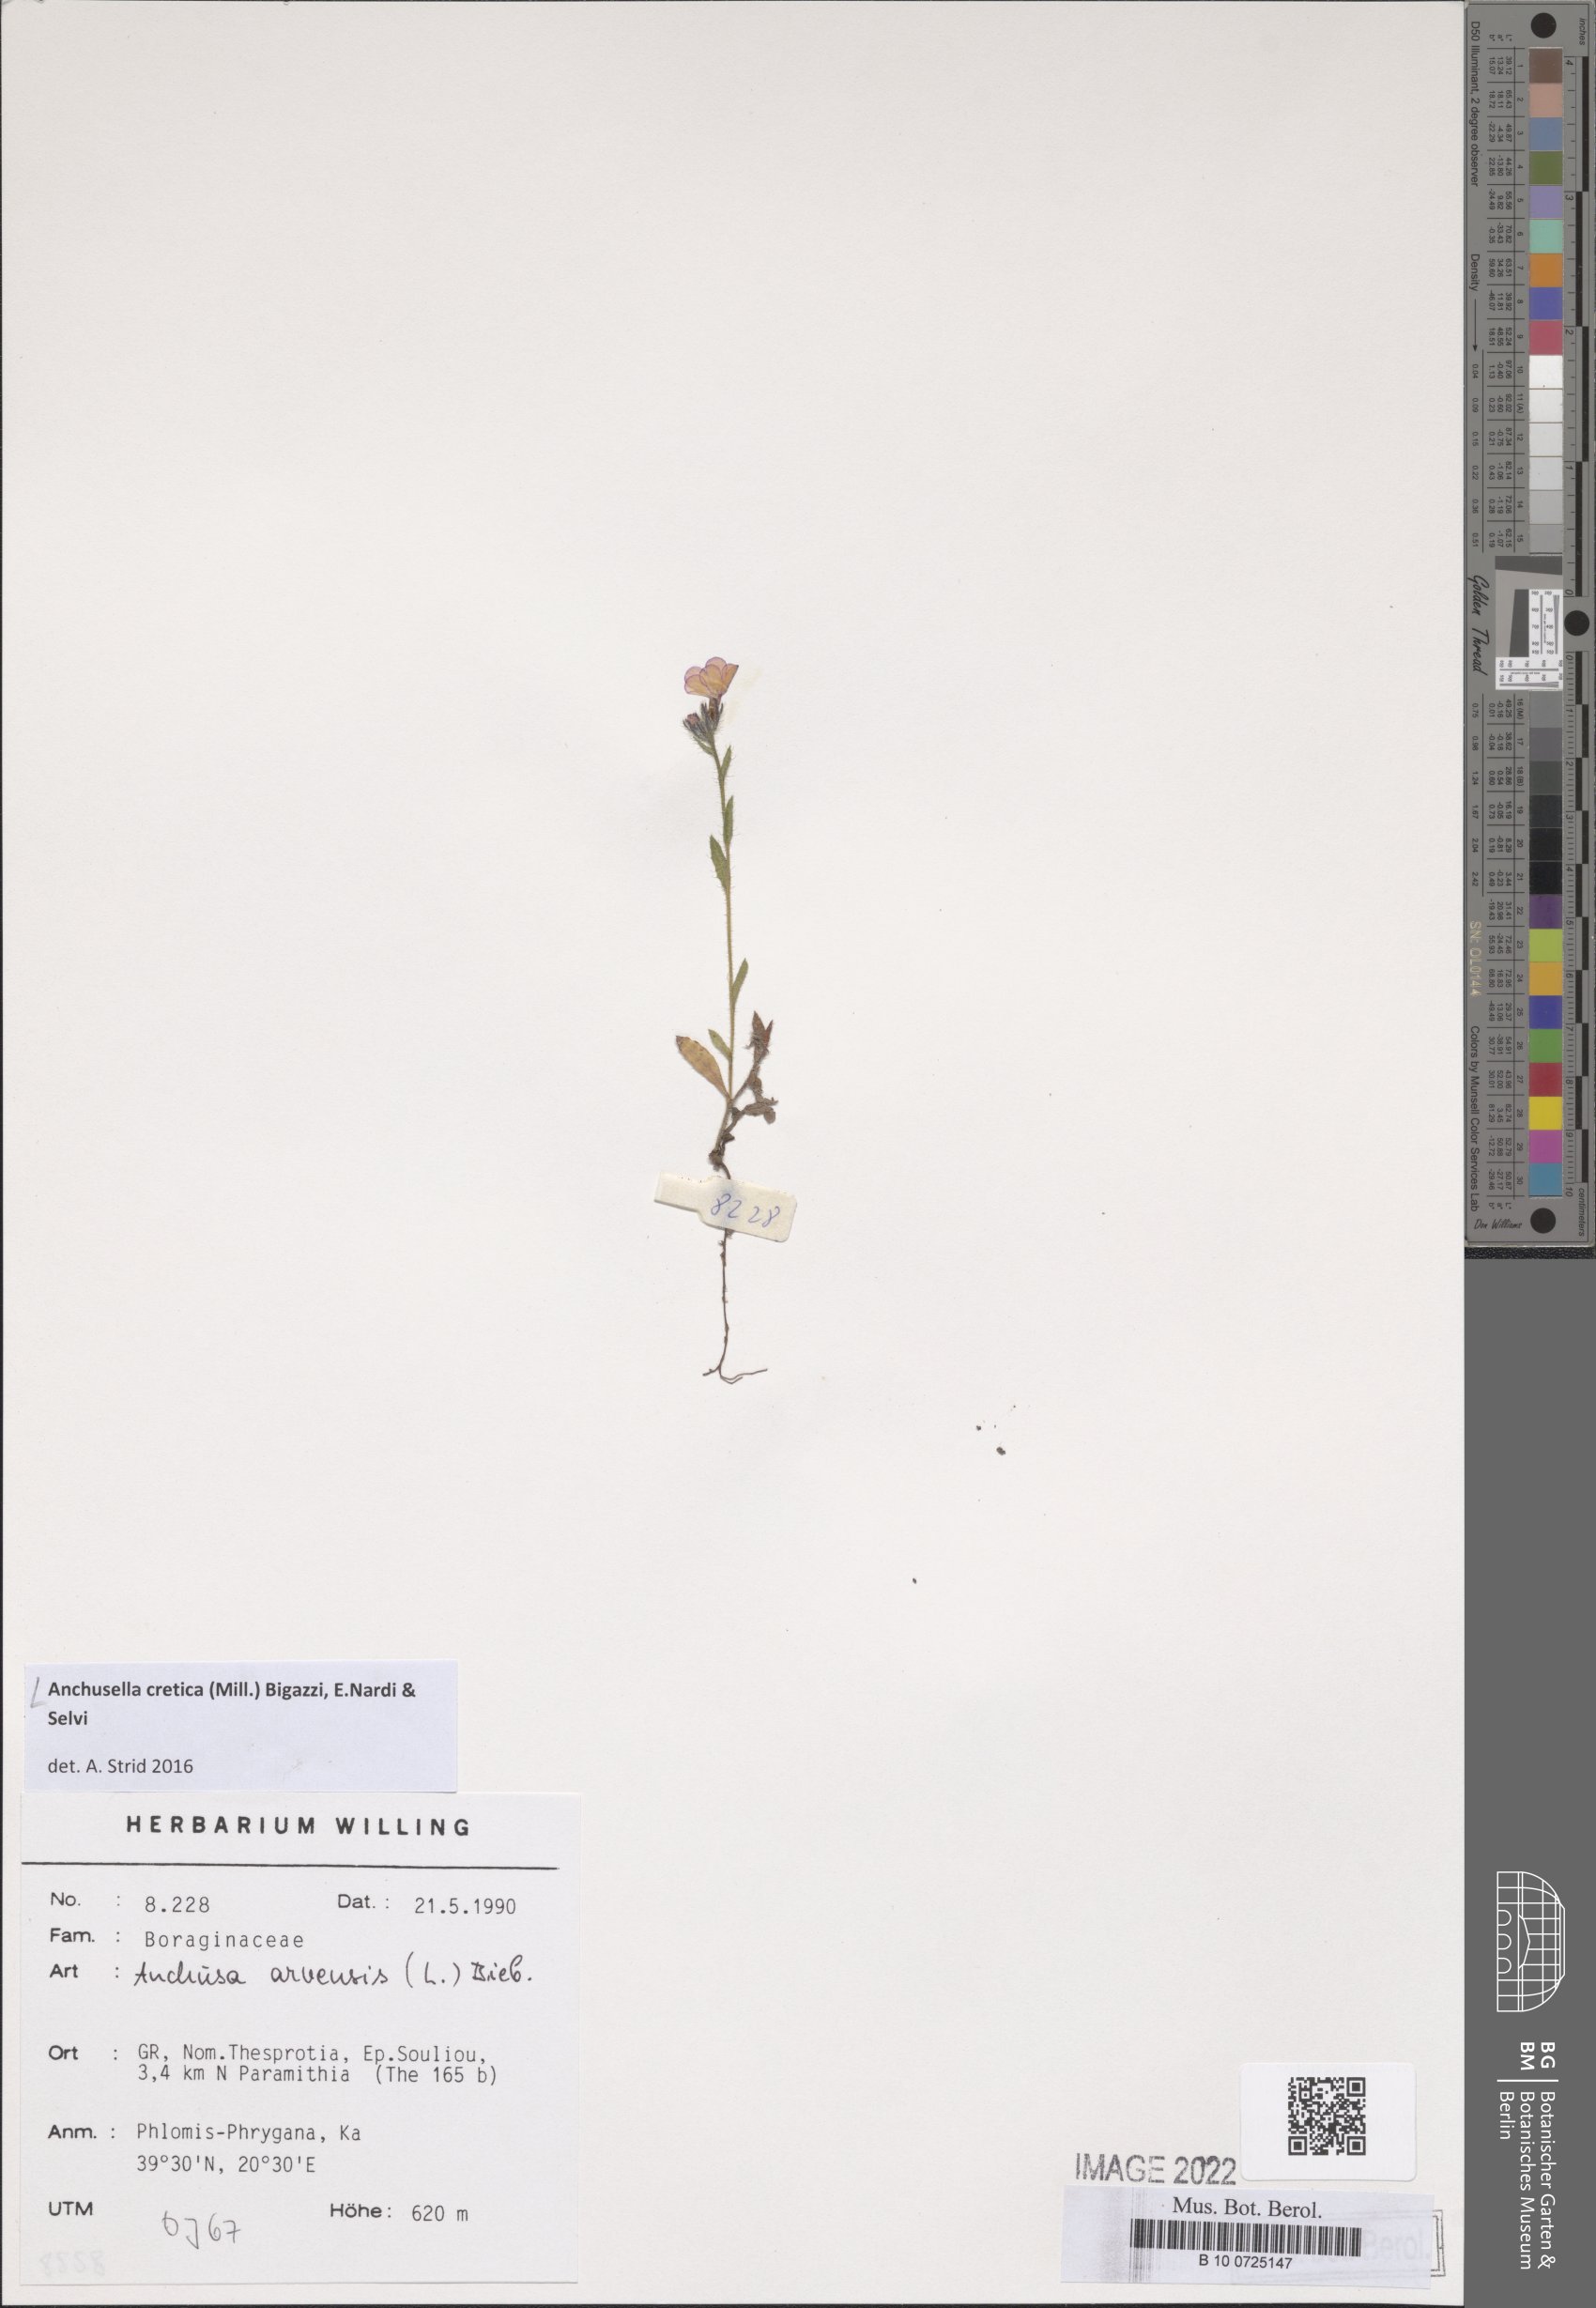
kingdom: Plantae
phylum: Tracheophyta
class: Magnoliopsida
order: Boraginales
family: Boraginaceae
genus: Anchusella
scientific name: Anchusella cretica
